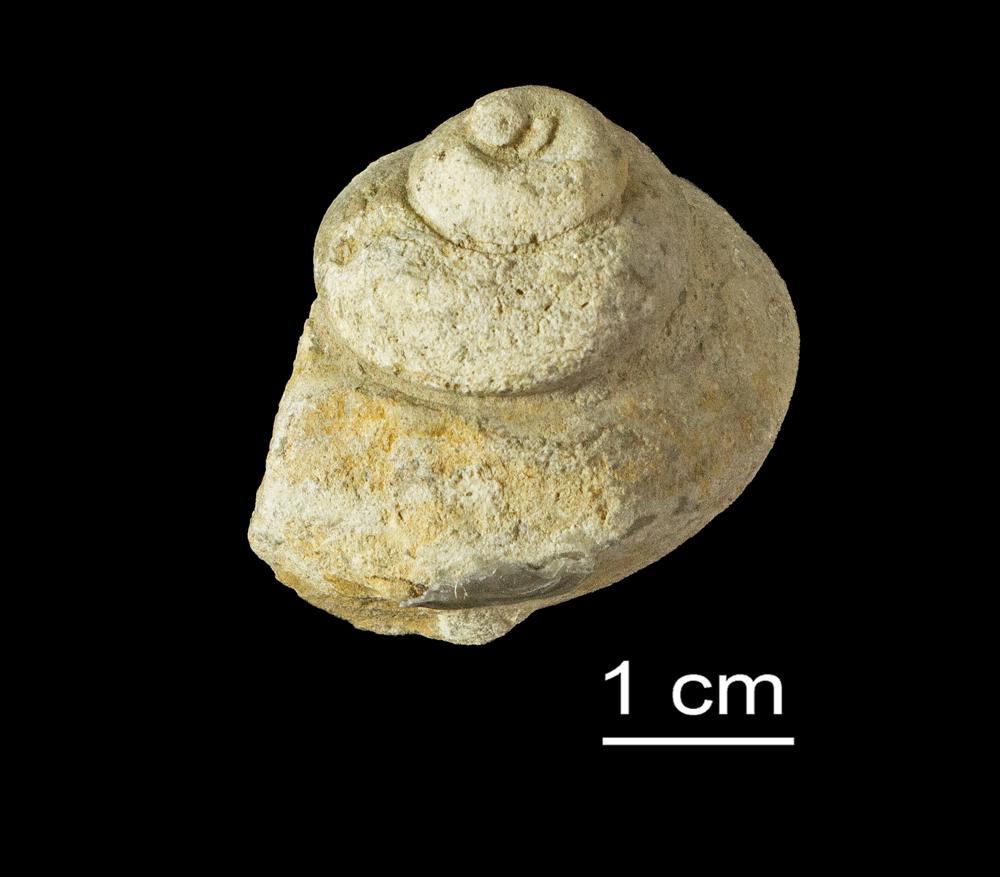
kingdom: Animalia
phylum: Mollusca
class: Gastropoda
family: Holopeidae
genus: Holopea
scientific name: Holopea
